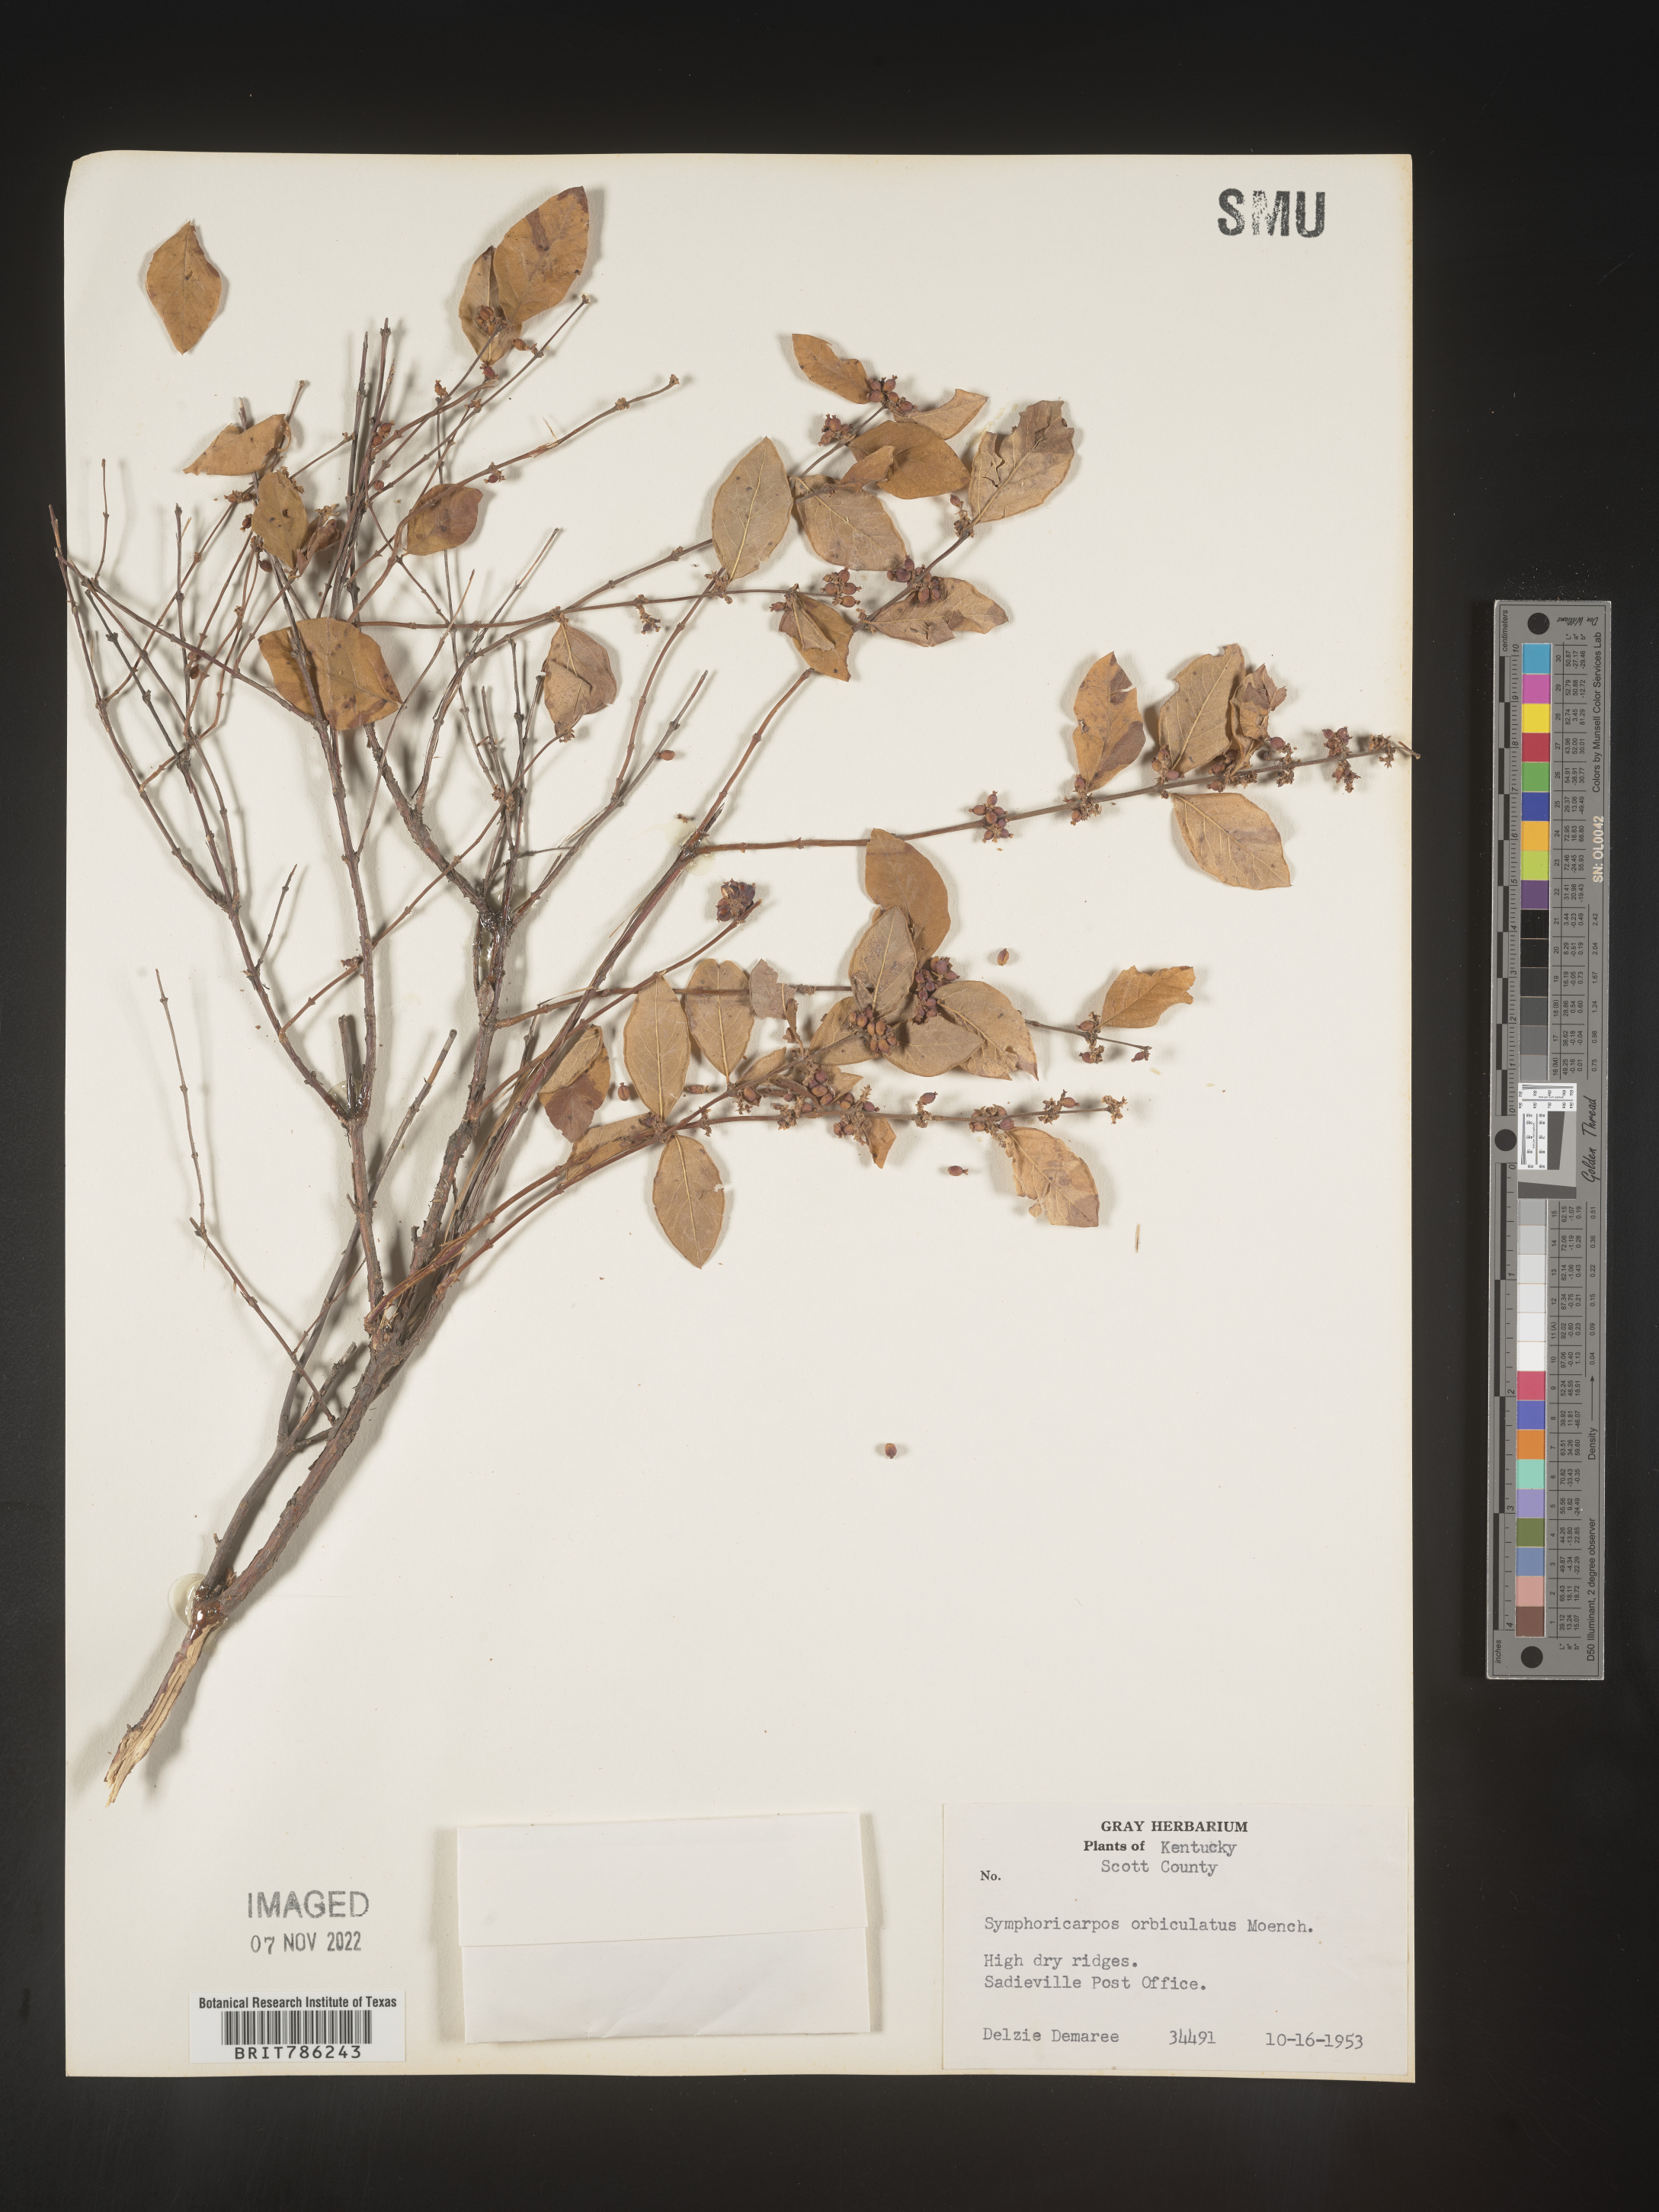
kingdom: Plantae
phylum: Tracheophyta
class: Magnoliopsida
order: Dipsacales
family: Caprifoliaceae
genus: Symphoricarpos
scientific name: Symphoricarpos orbiculatus
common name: Coralberry
